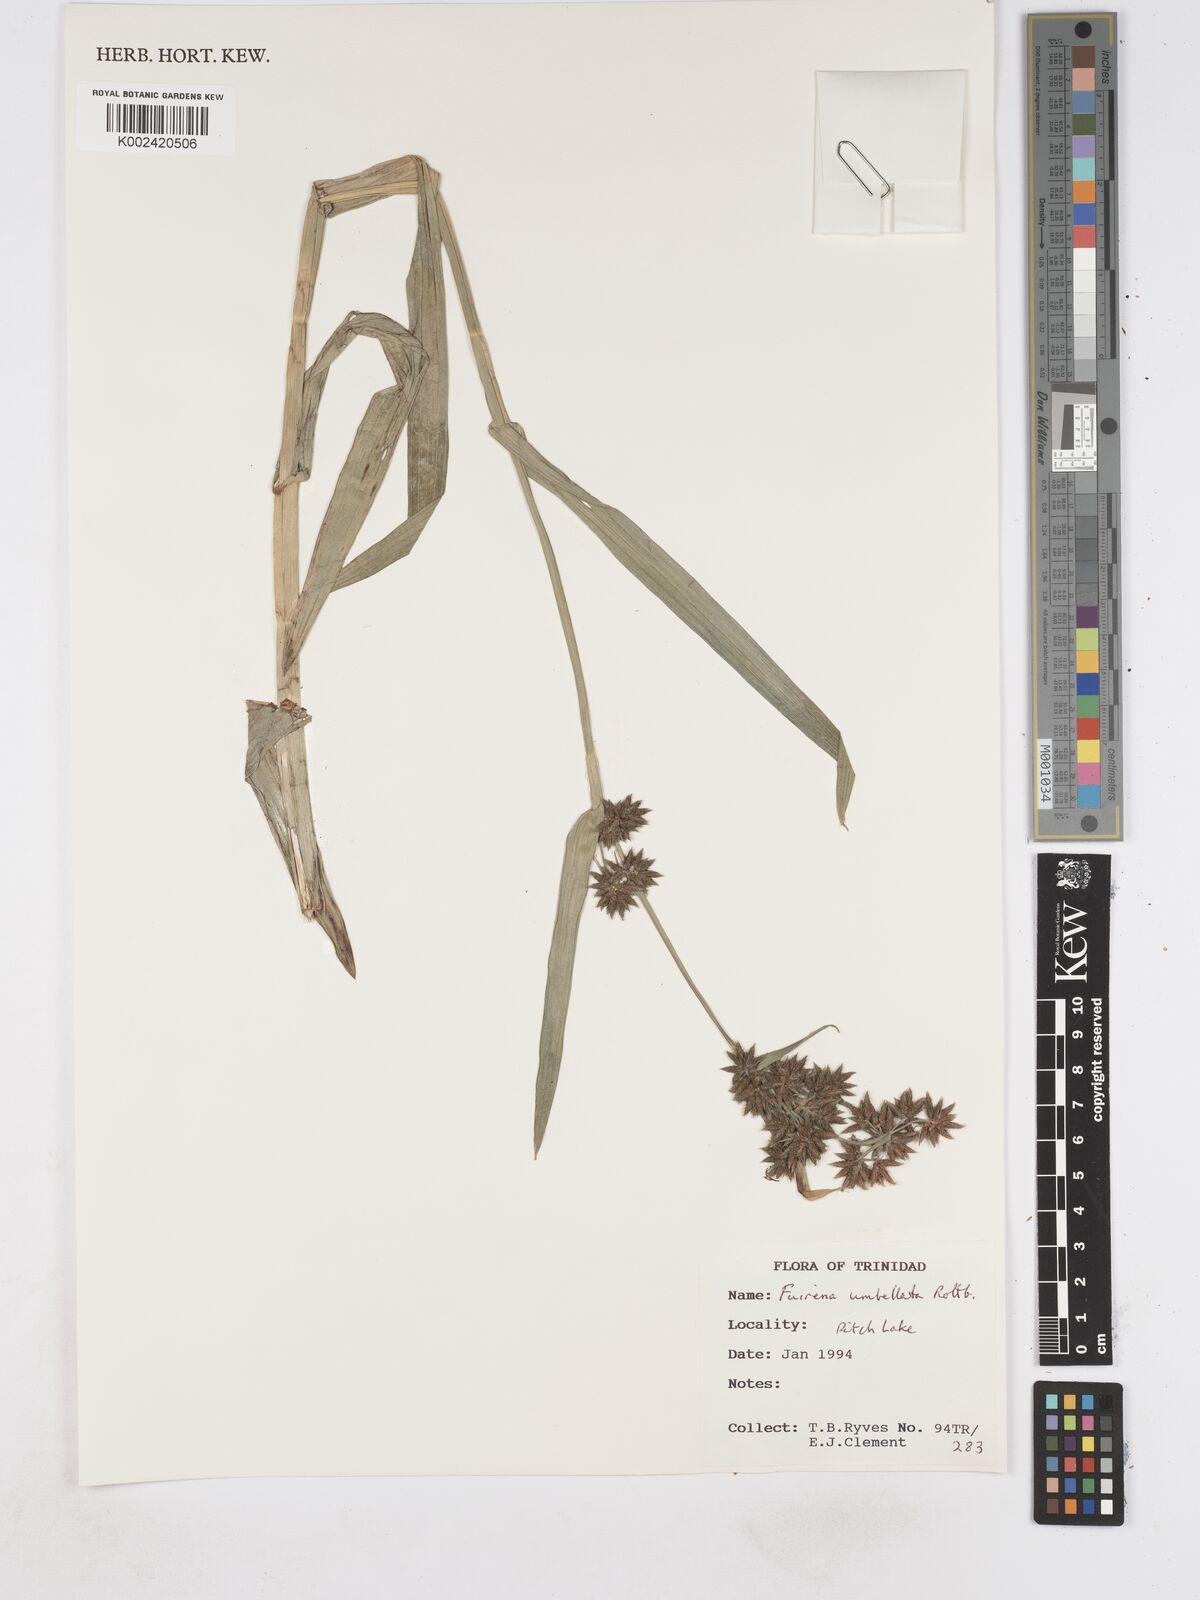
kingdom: Plantae
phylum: Tracheophyta
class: Liliopsida
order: Poales
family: Cyperaceae
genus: Fuirena
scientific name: Fuirena umbellata
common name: Yefen
